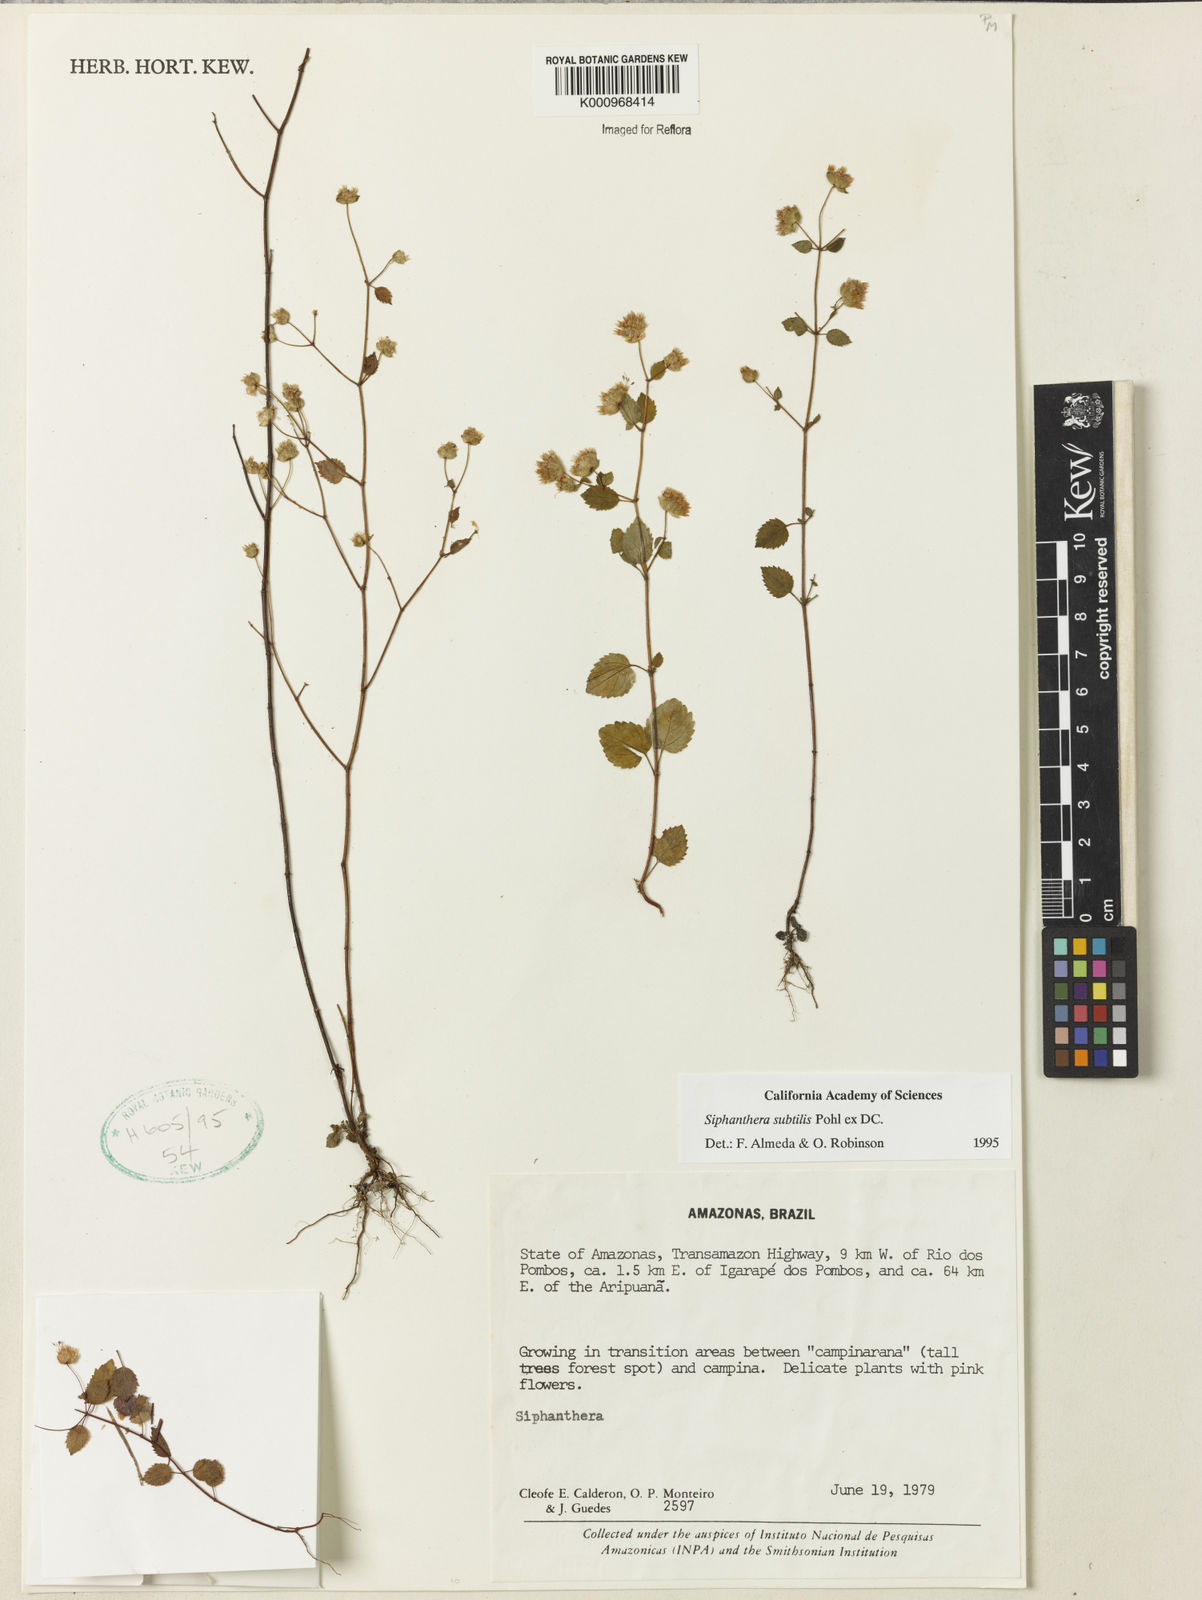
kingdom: Plantae
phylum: Tracheophyta
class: Magnoliopsida
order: Myrtales
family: Melastomataceae
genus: Siphanthera
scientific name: Siphanthera
